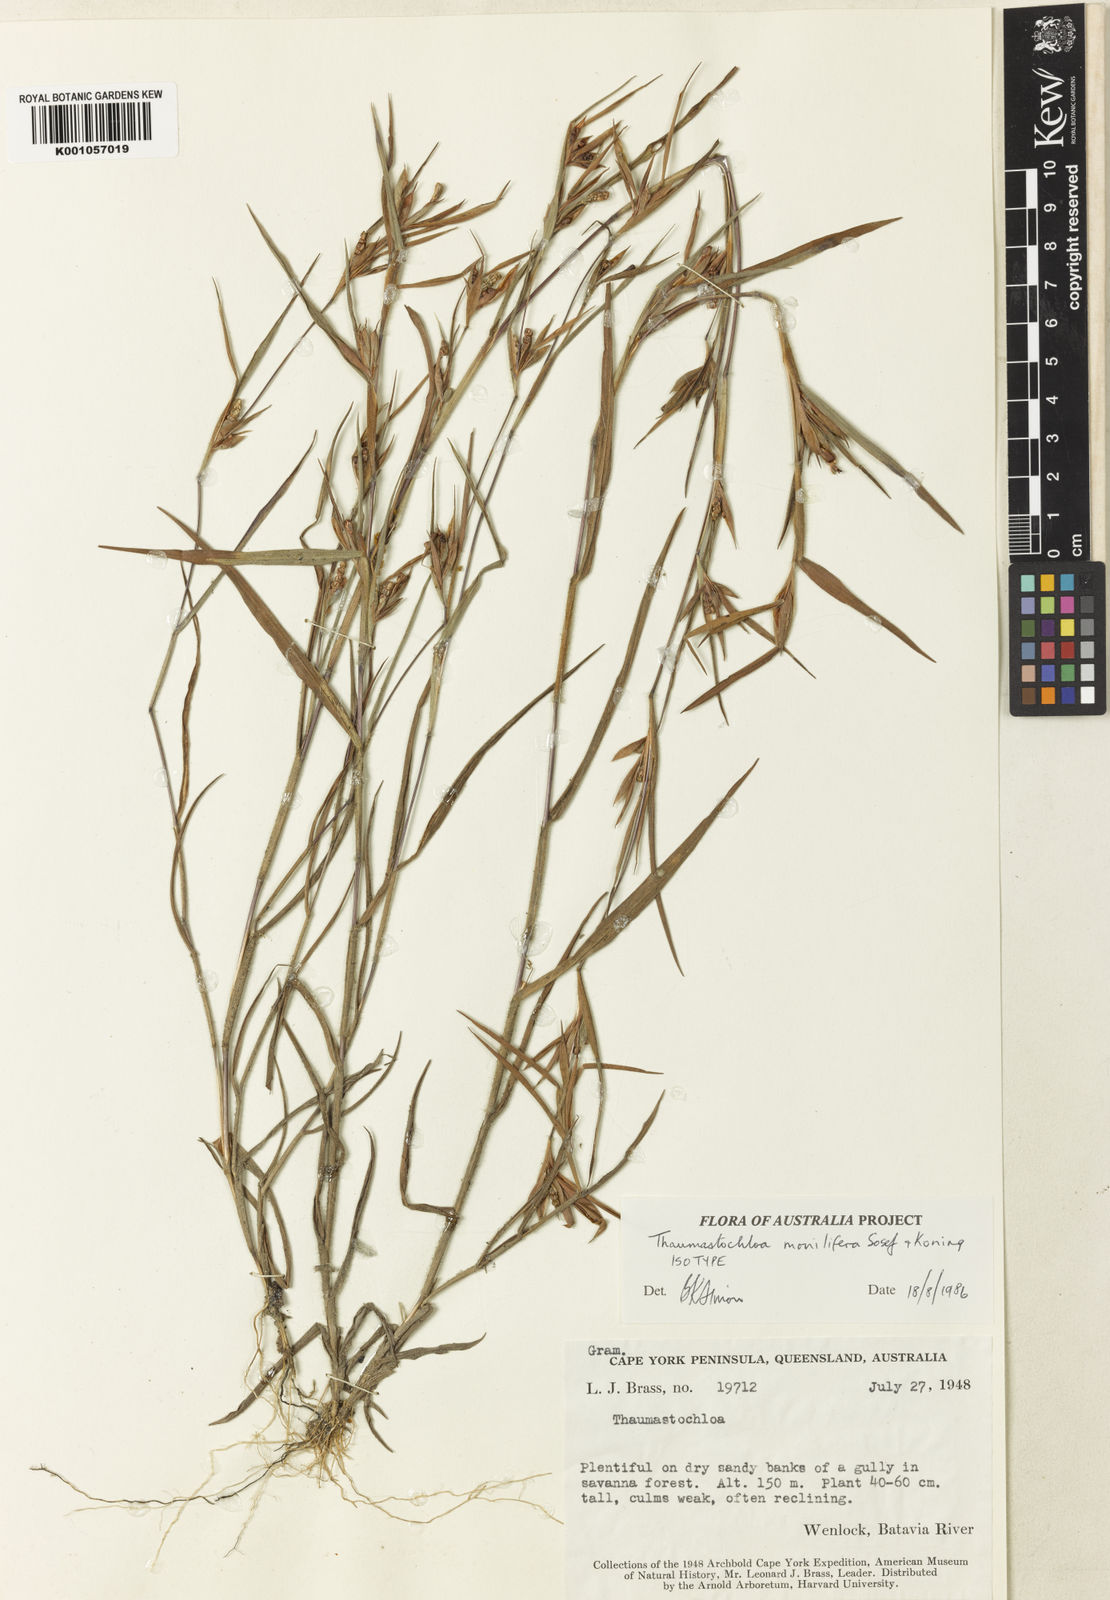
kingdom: Plantae
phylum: Tracheophyta
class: Liliopsida
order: Poales
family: Poaceae
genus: Thaumastochloa
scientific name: Thaumastochloa monilifera
